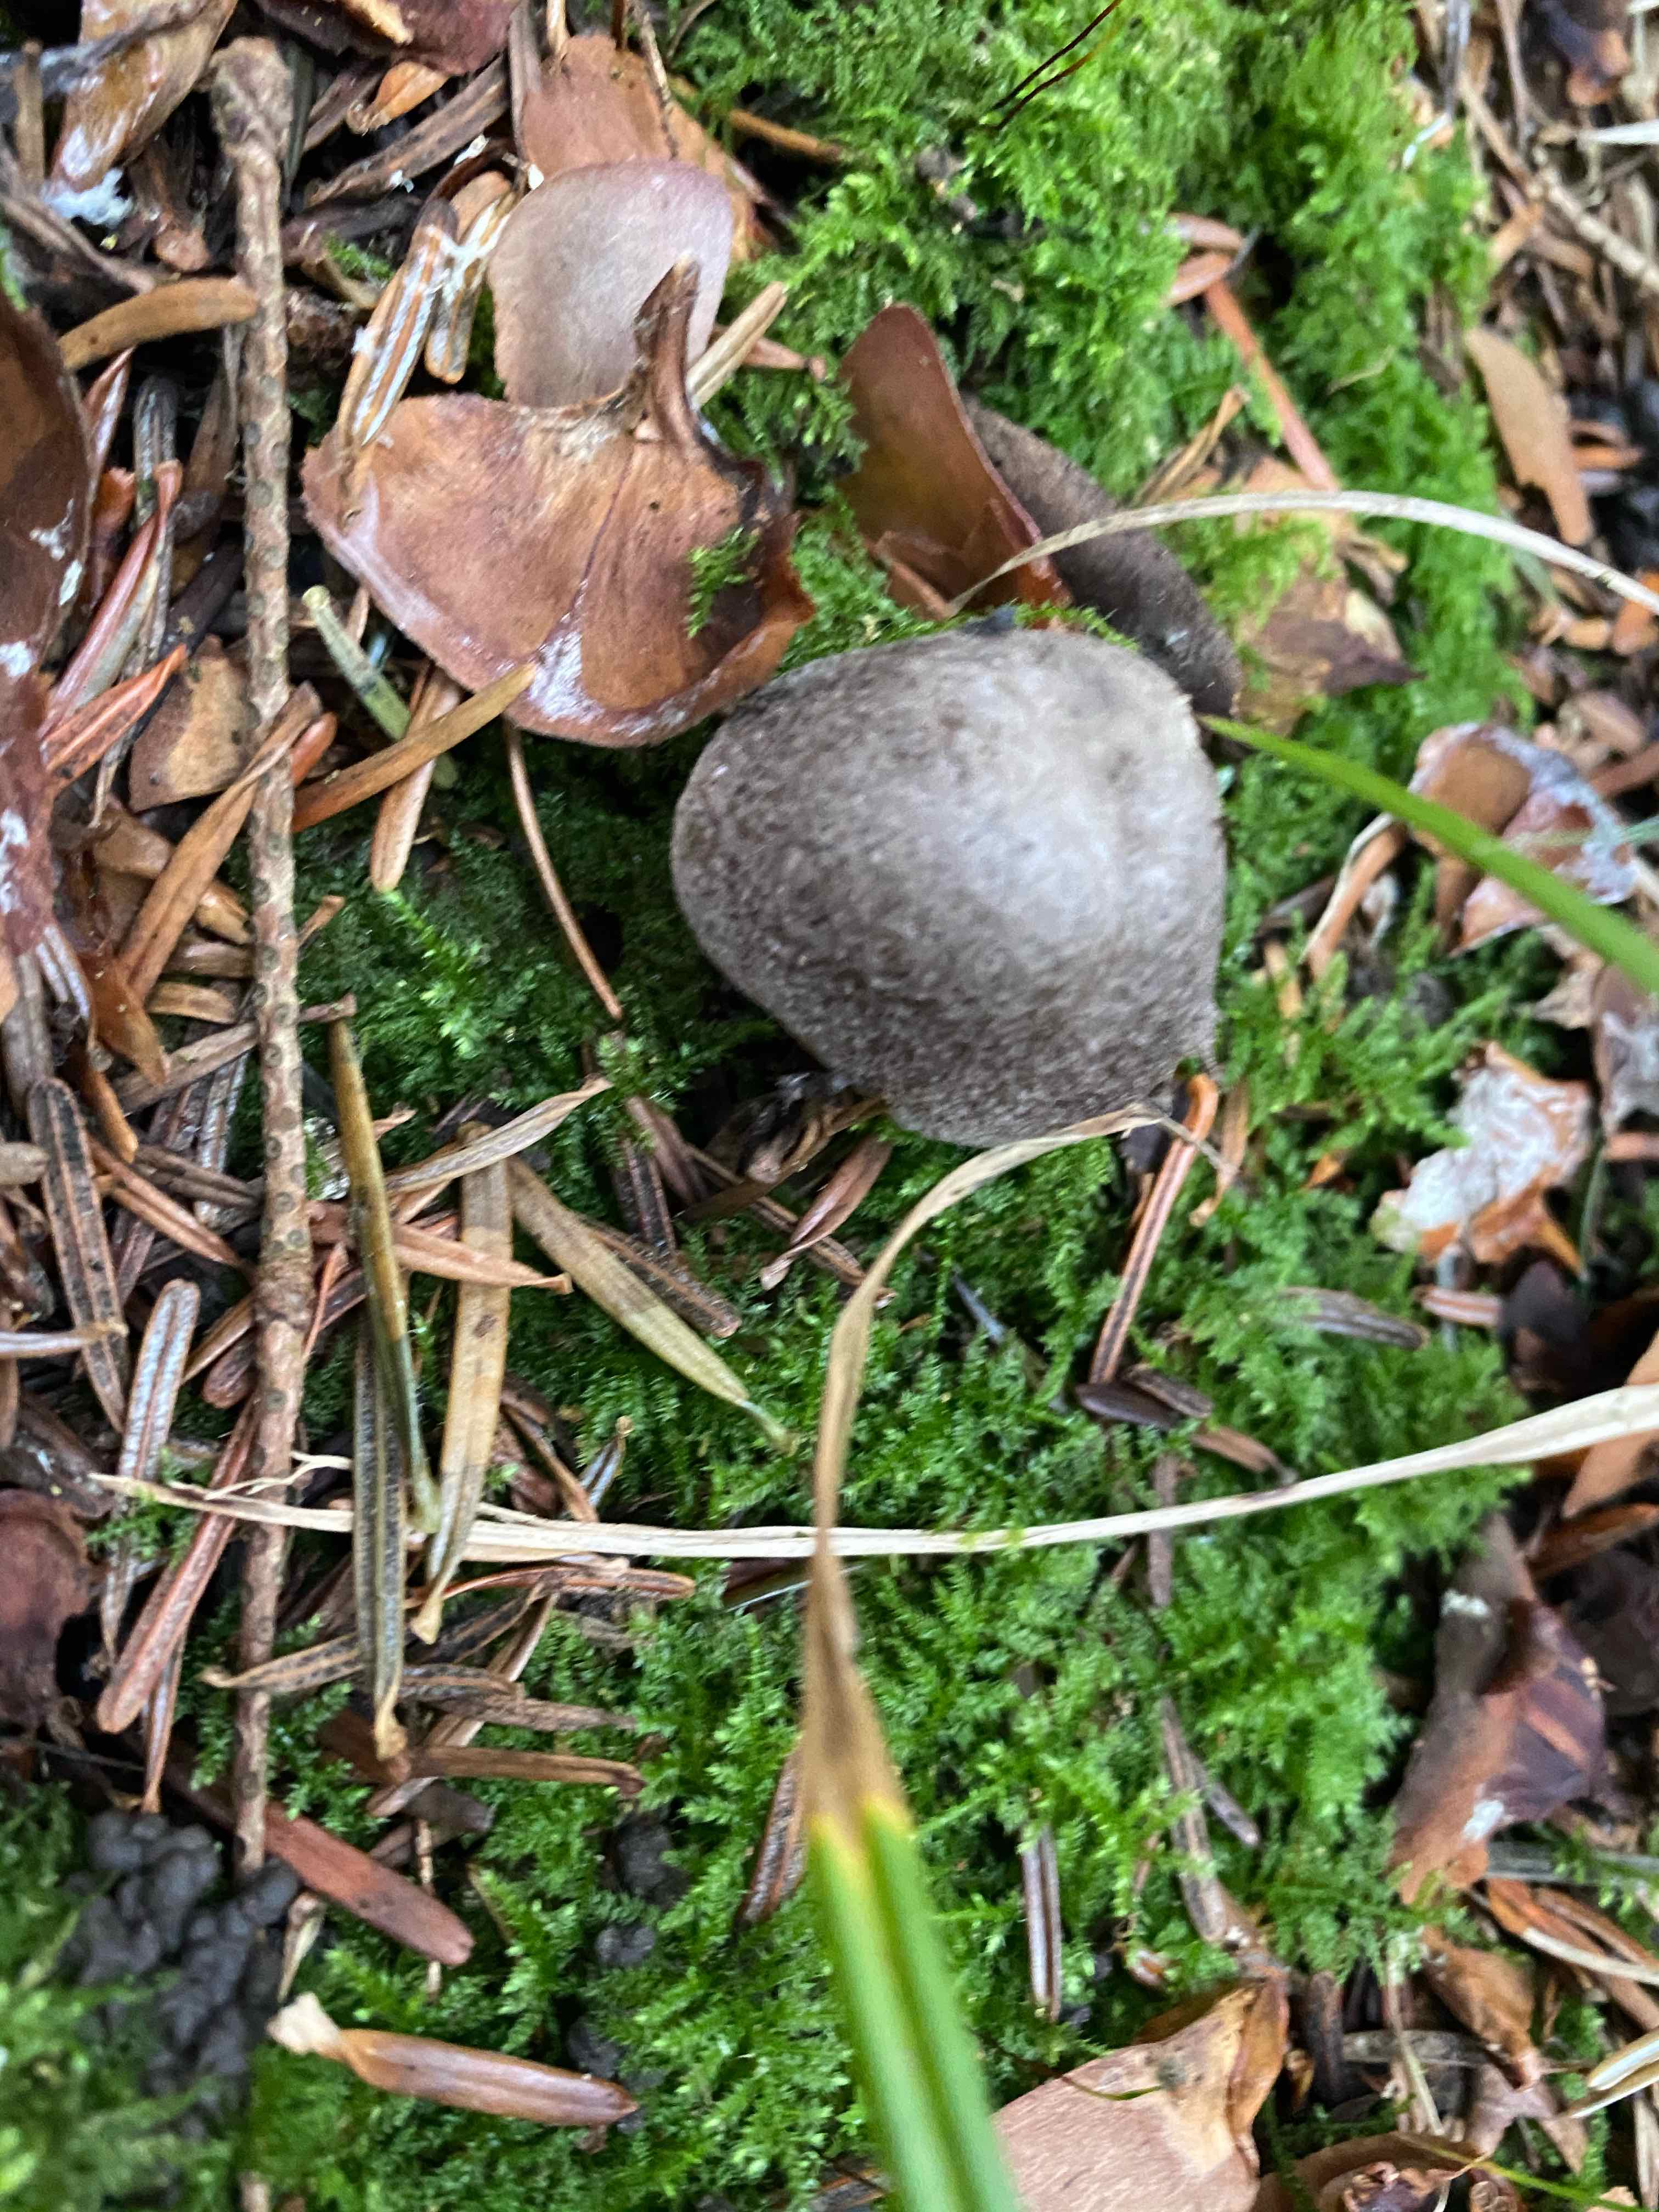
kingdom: Fungi
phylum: Basidiomycota
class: Agaricomycetes
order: Agaricales
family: Tricholomataceae
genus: Tricholoma
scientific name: Tricholoma terreum
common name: jordfarvet ridderhat
